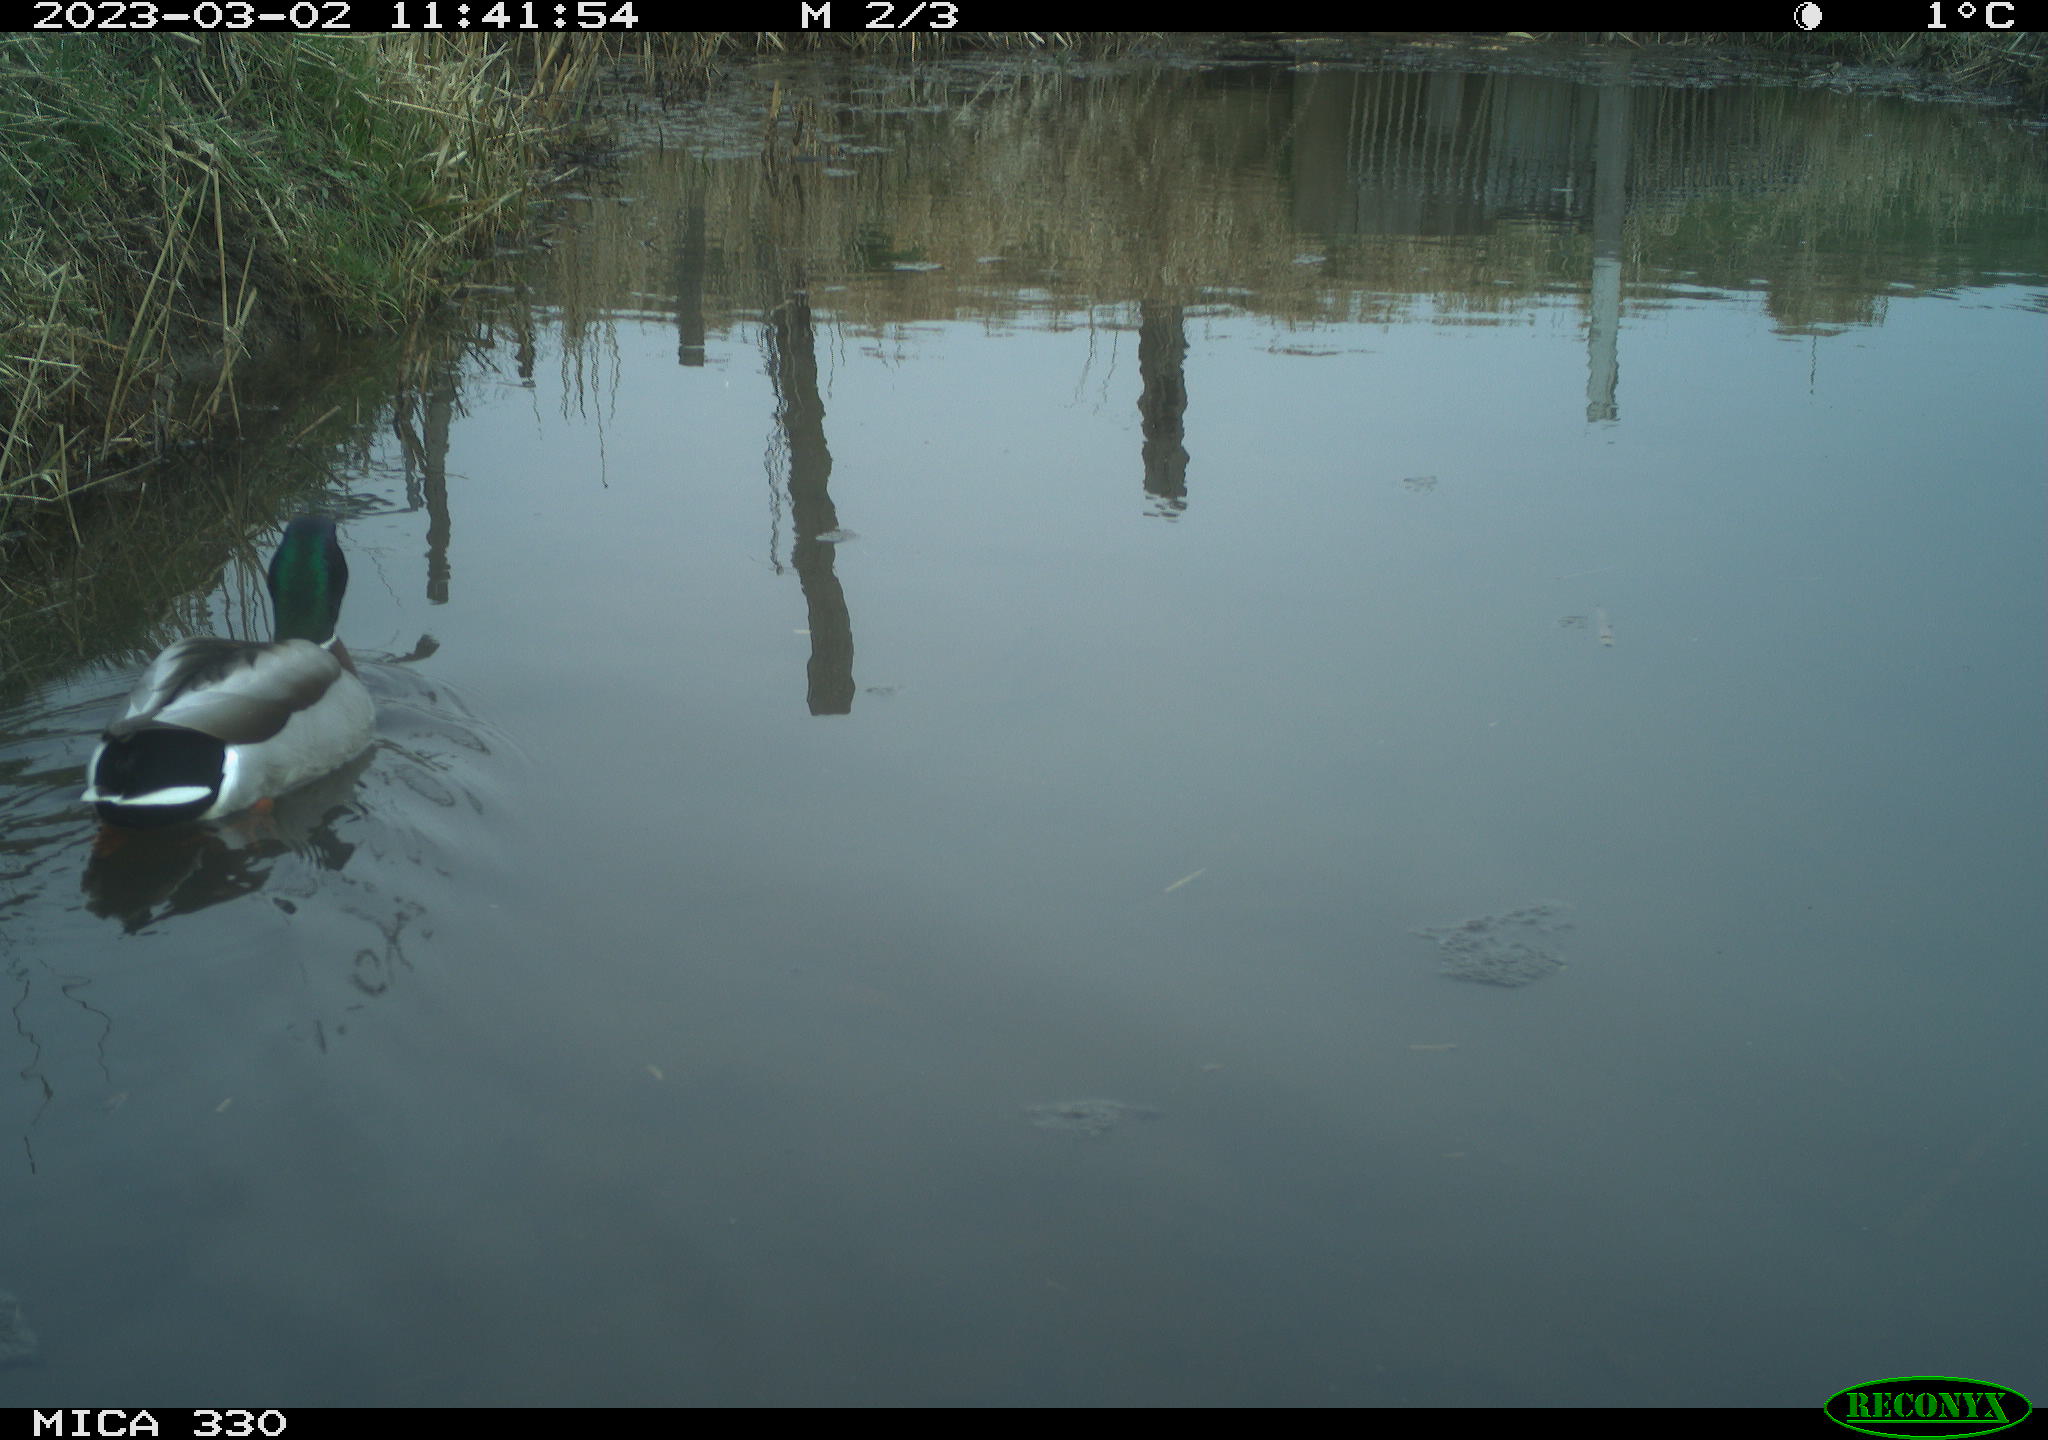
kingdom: Animalia
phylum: Chordata
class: Aves
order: Anseriformes
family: Anatidae
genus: Anas
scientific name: Anas
